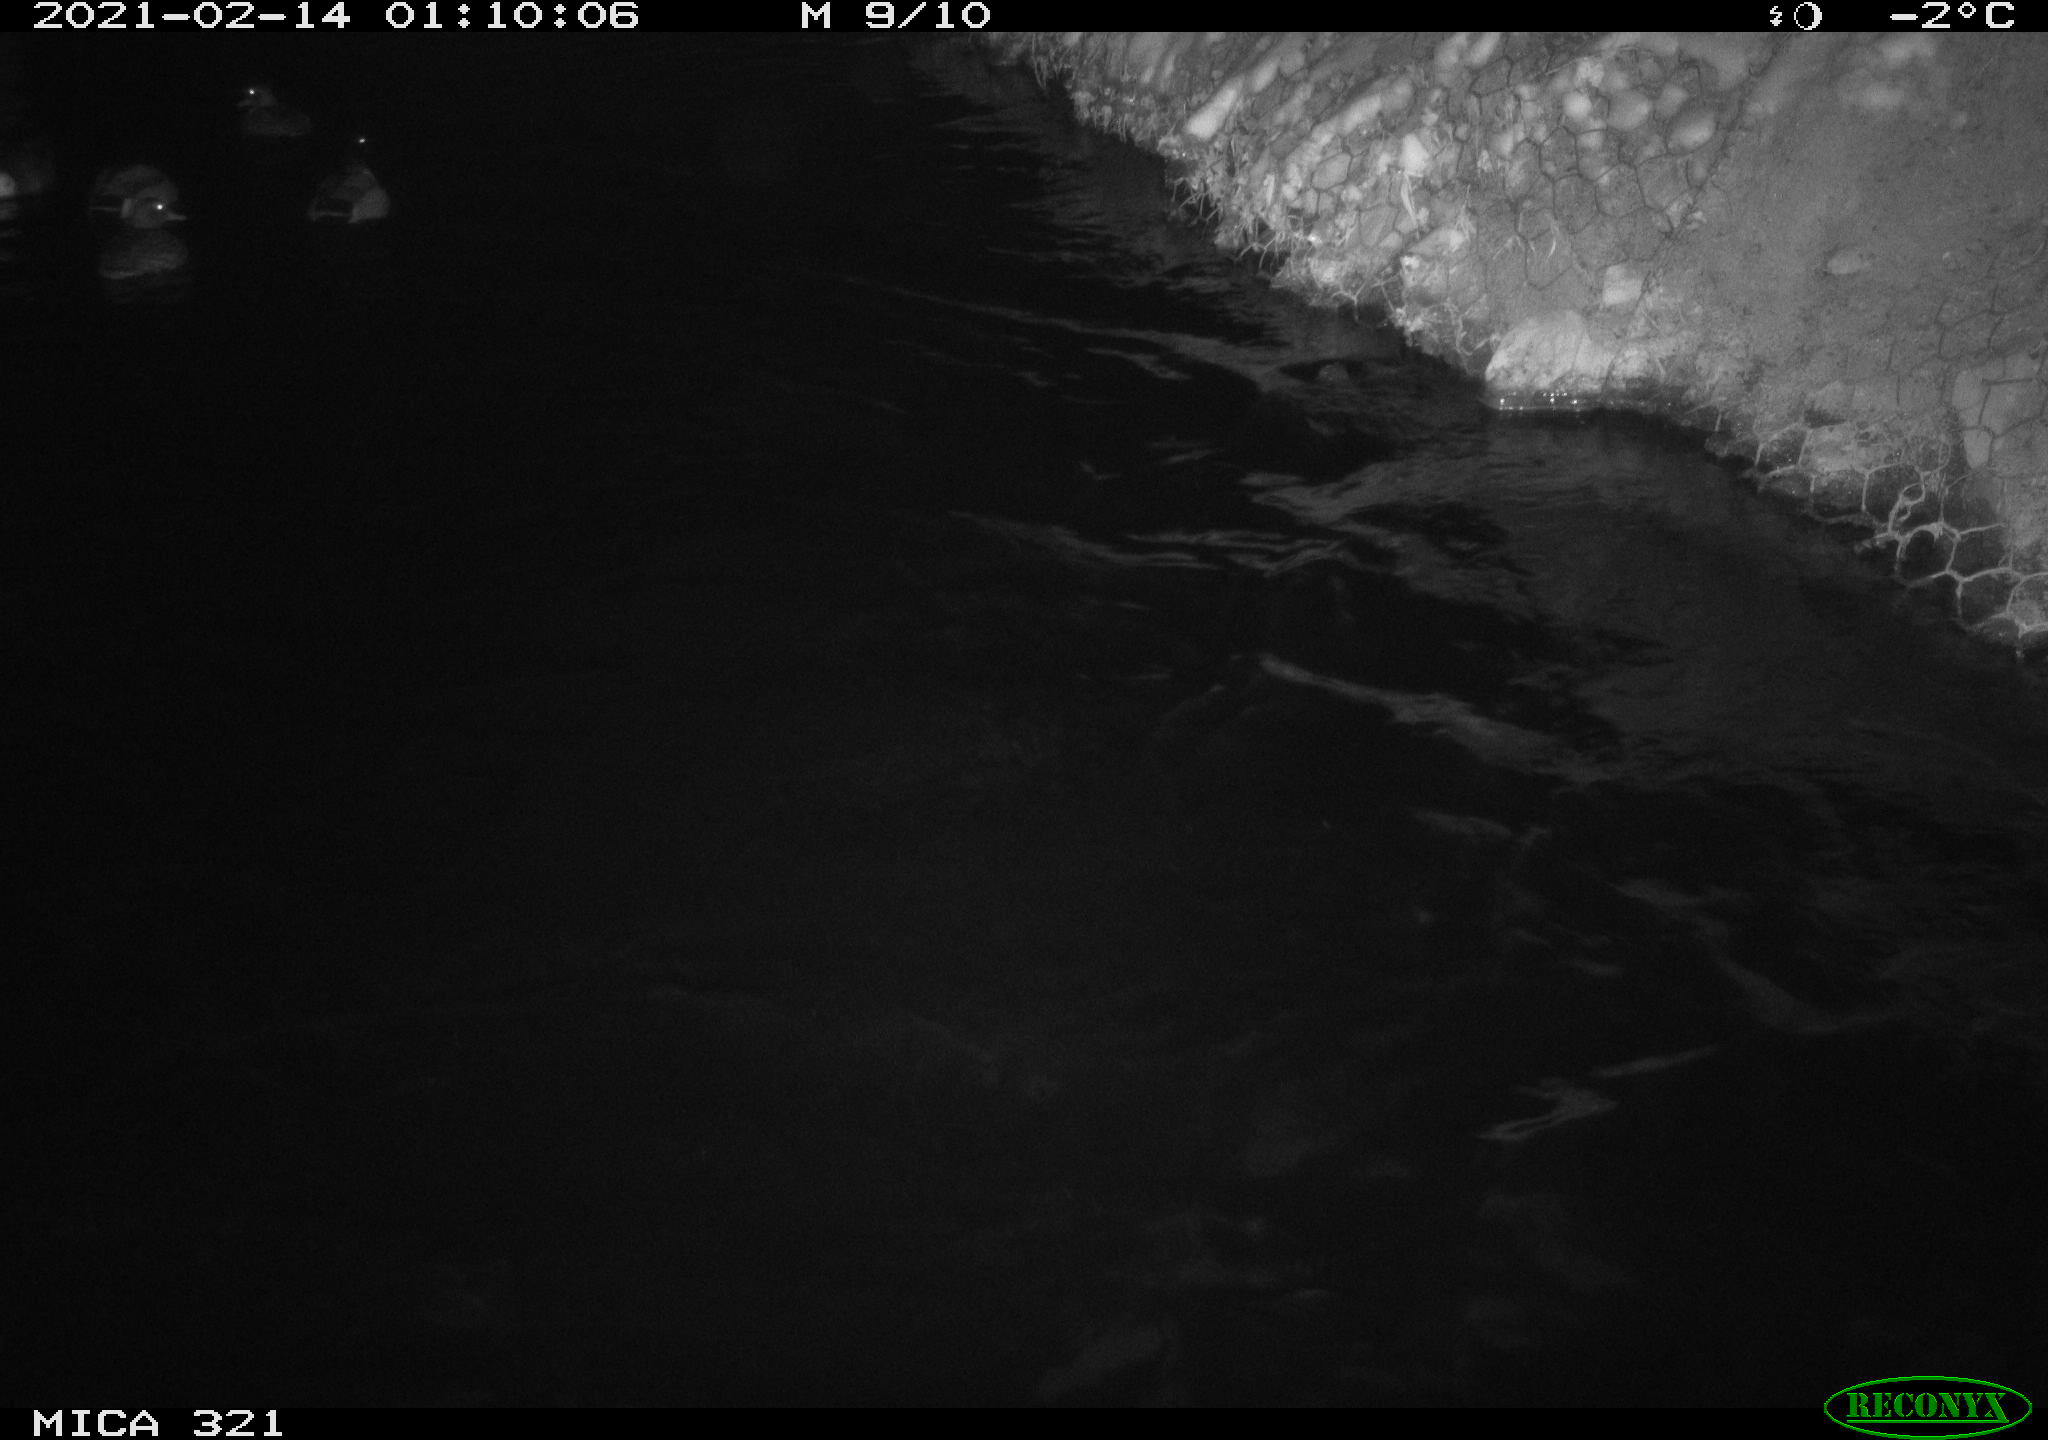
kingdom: Animalia
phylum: Chordata
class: Aves
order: Anseriformes
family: Anatidae
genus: Anas
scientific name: Anas platyrhynchos
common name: Mallard
